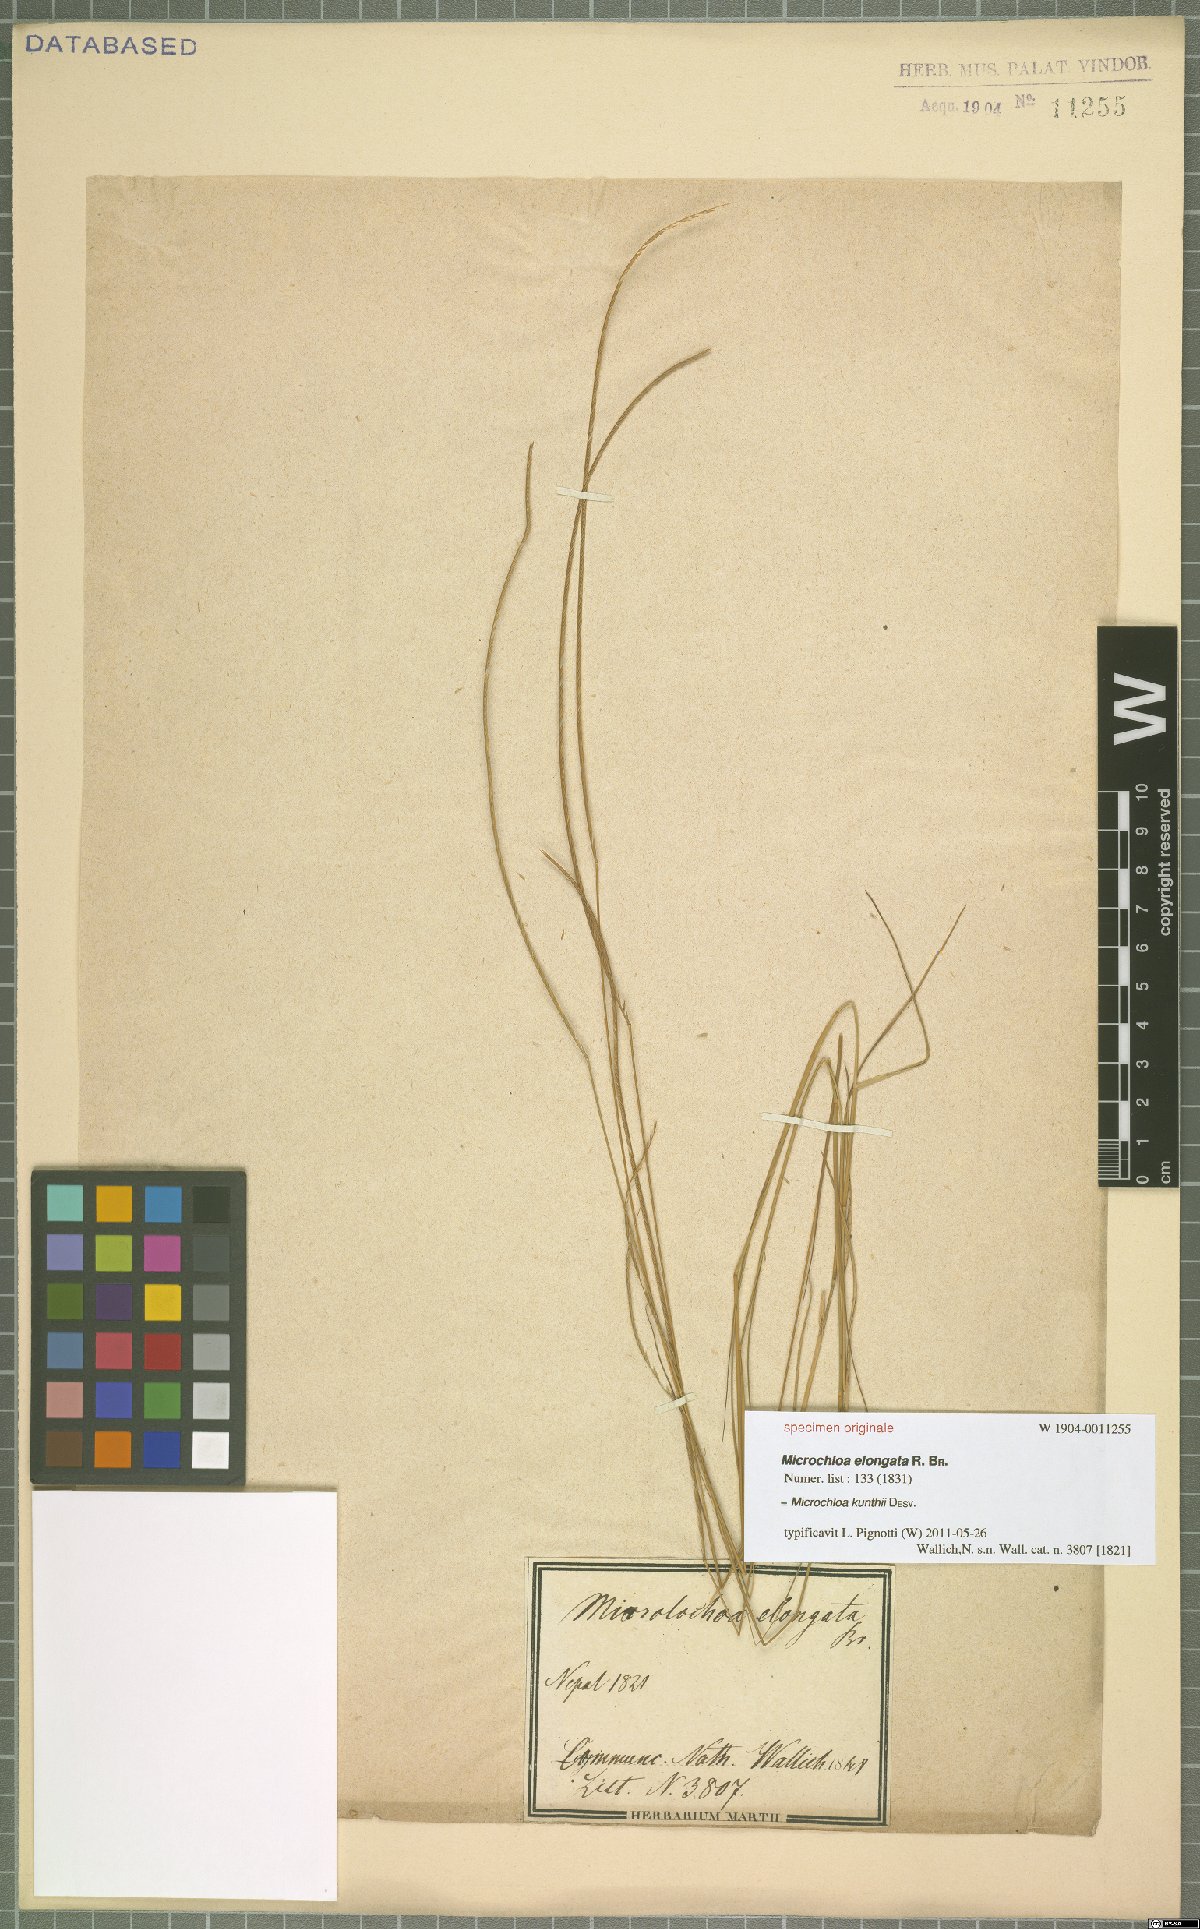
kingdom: Plantae
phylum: Tracheophyta
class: Liliopsida
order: Poales
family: Poaceae
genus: Microchloa
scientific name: Microchloa kunthii
